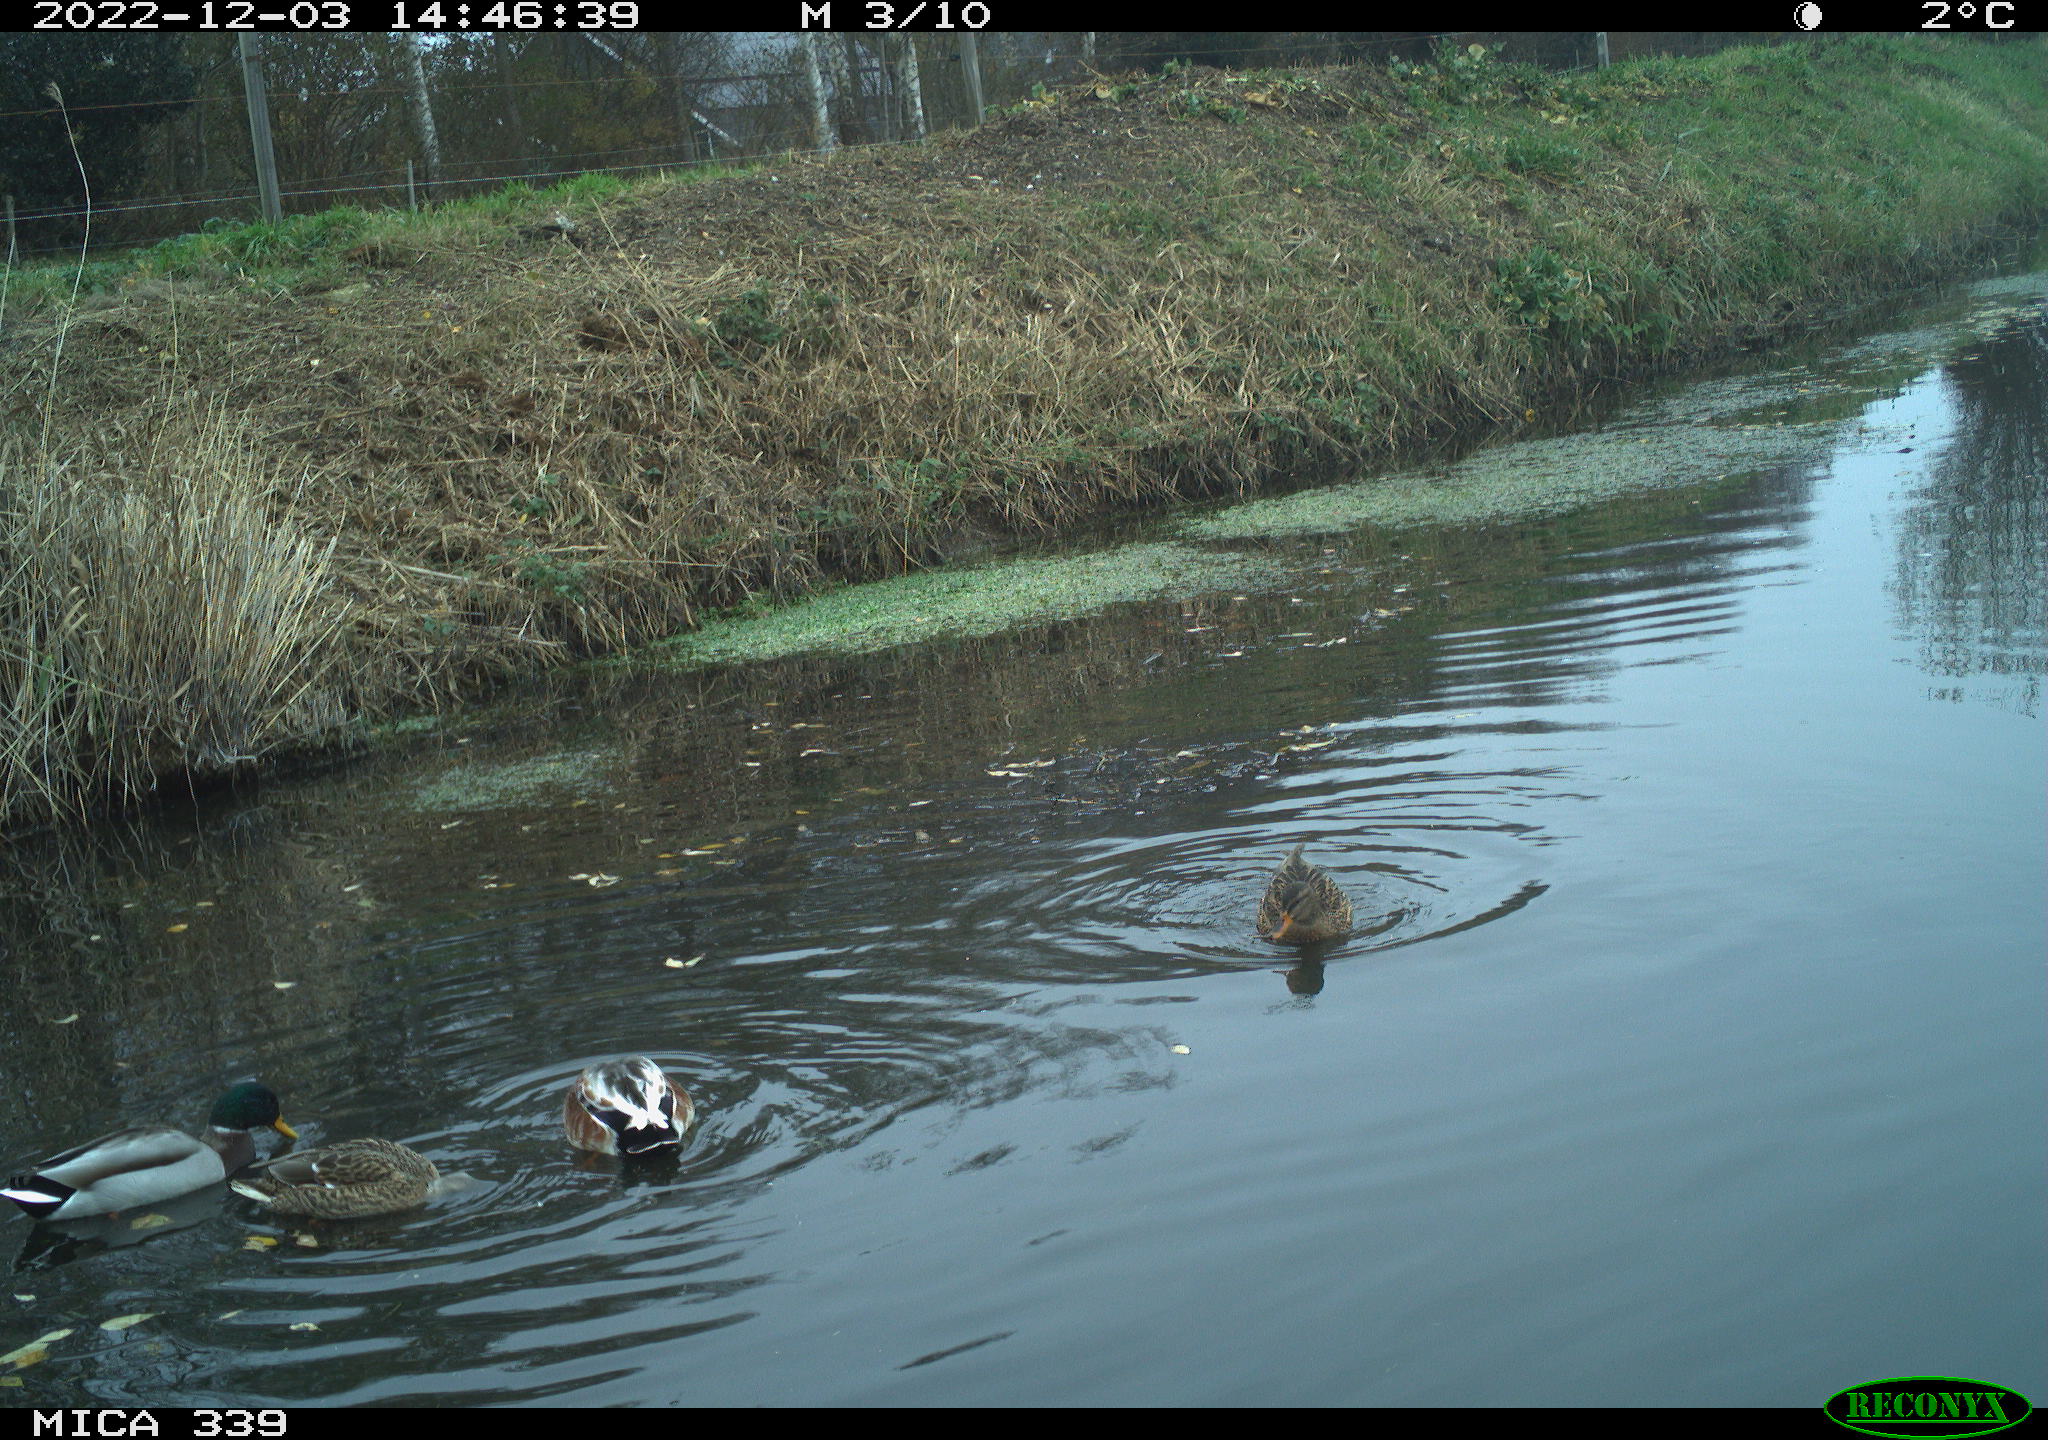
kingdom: Animalia
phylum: Chordata
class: Aves
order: Anseriformes
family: Anatidae
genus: Anas
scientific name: Anas
